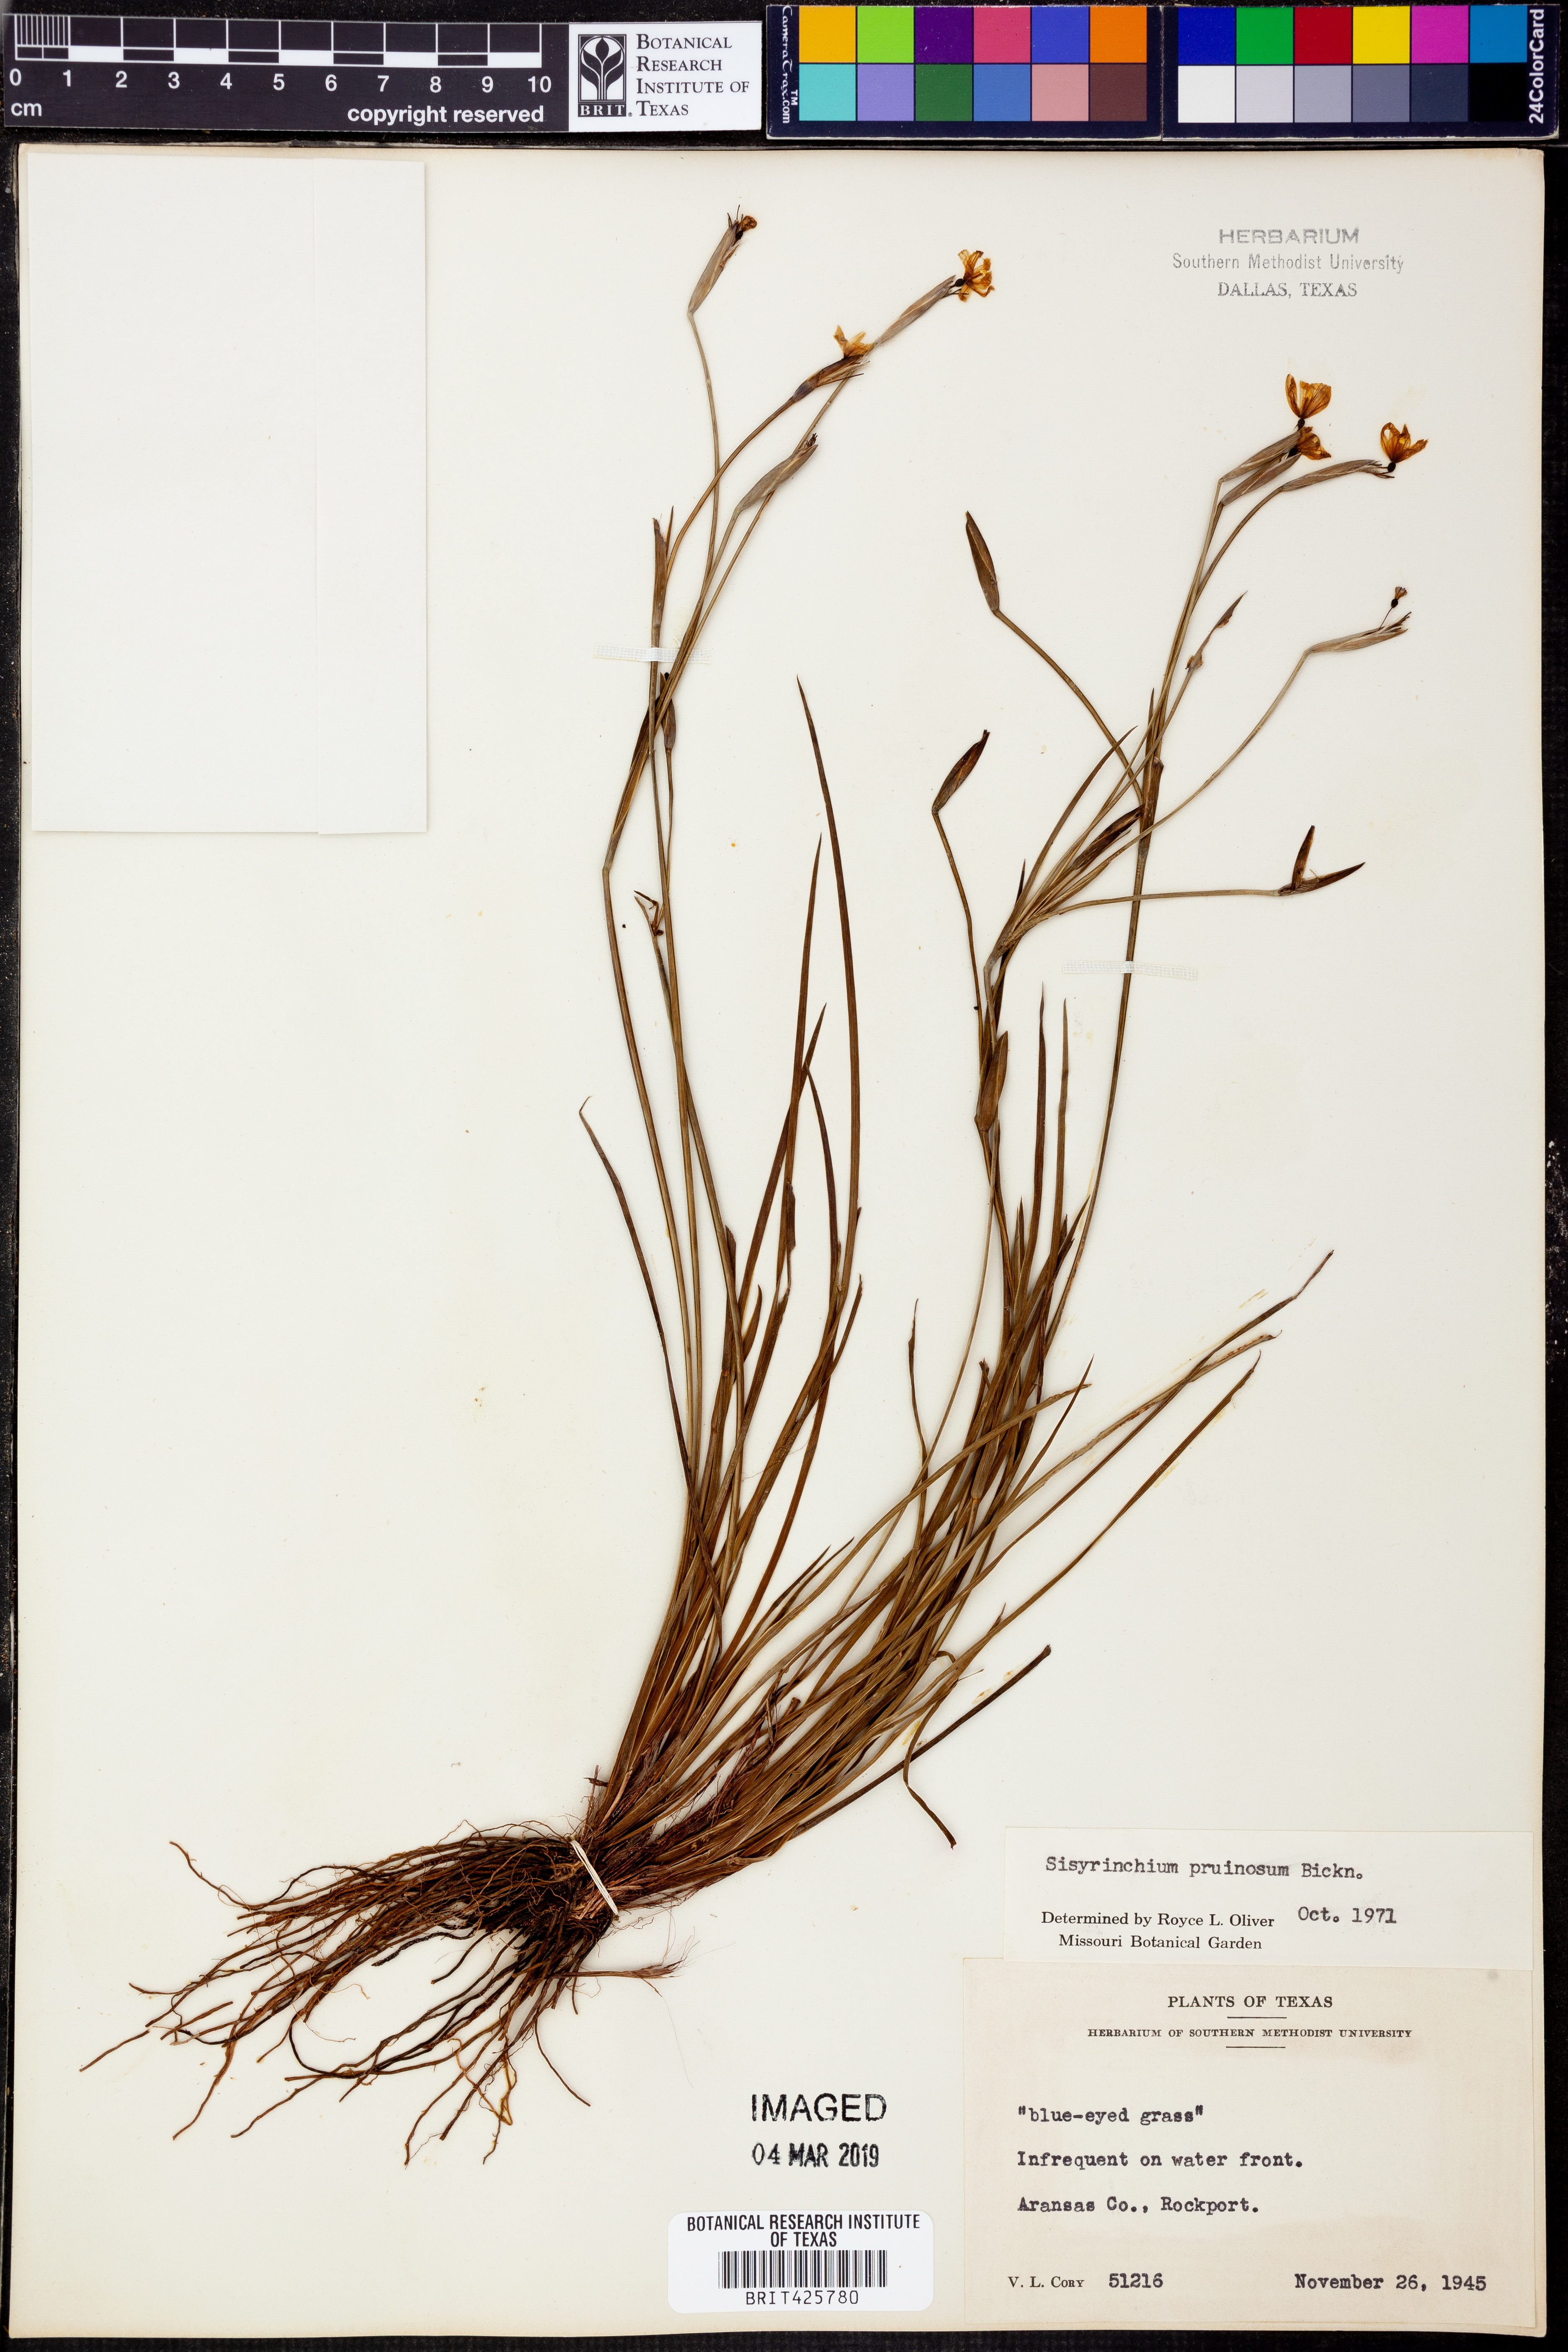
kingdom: Plantae
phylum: Tracheophyta
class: Liliopsida
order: Asparagales
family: Iridaceae
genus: Sisyrinchium
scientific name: Sisyrinchium pruinosum
